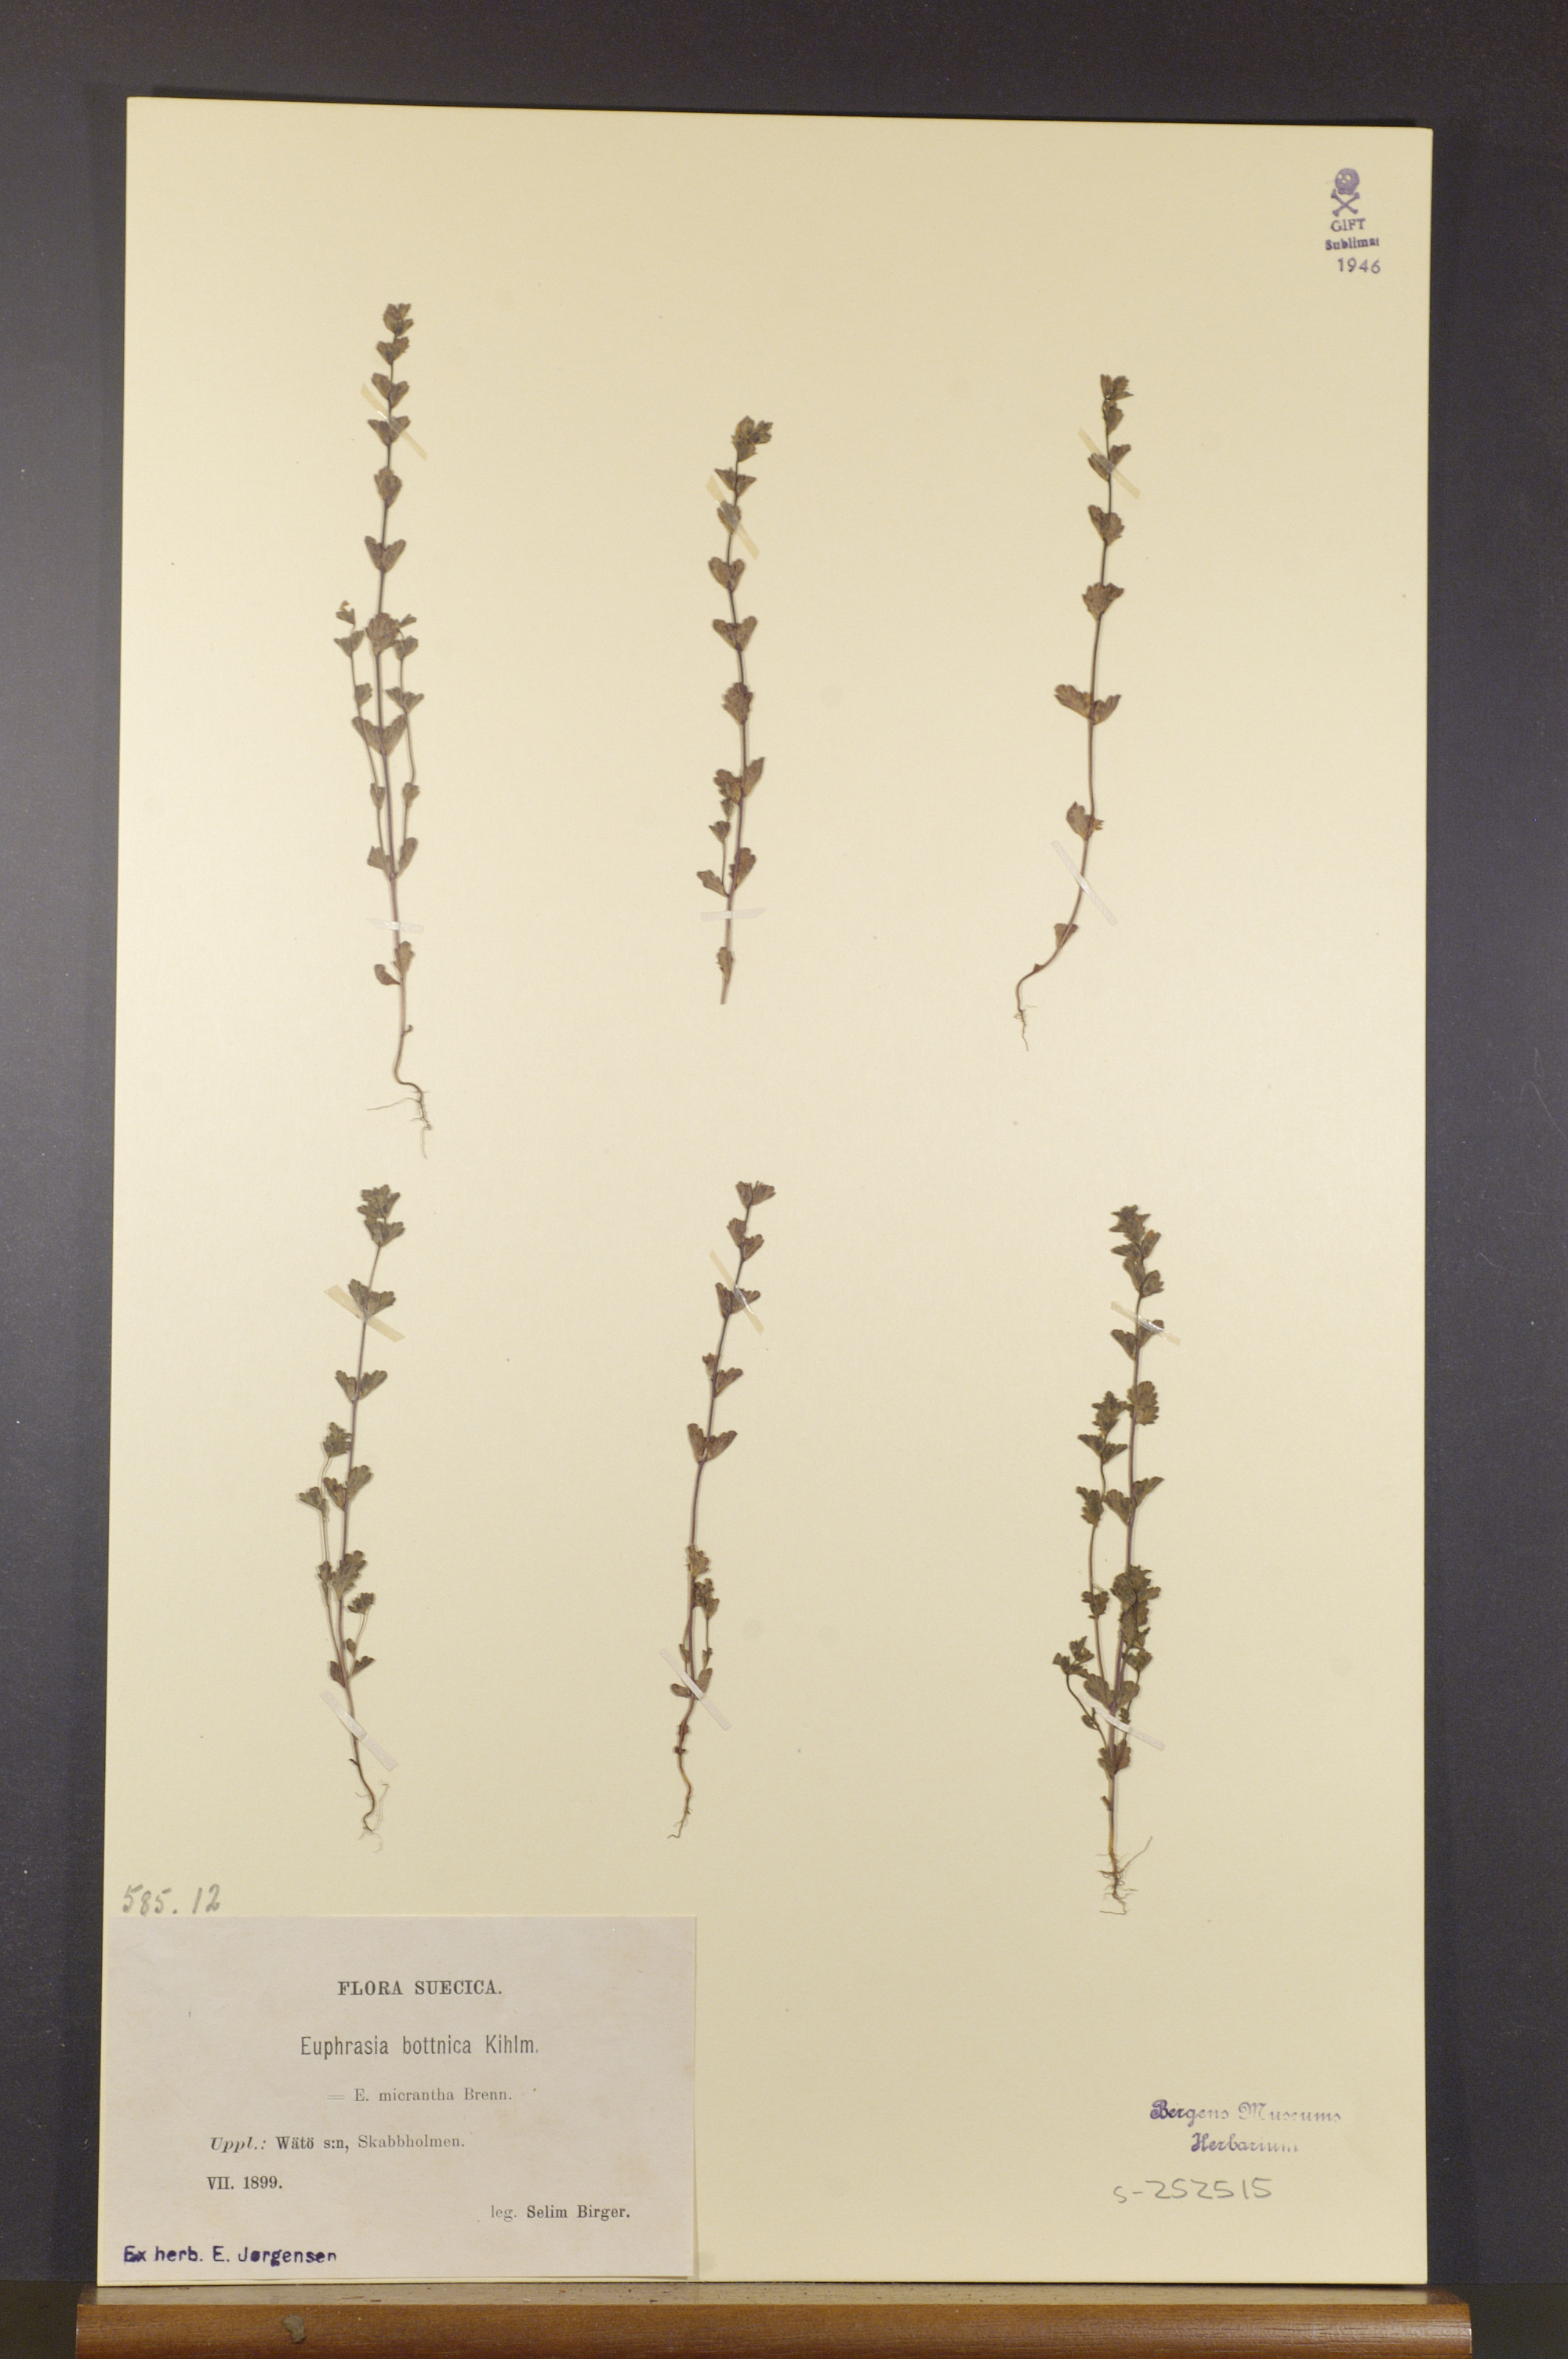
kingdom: Plantae
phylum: Tracheophyta
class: Magnoliopsida
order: Lamiales
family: Orobanchaceae
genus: Euphrasia
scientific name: Euphrasia bottnica
